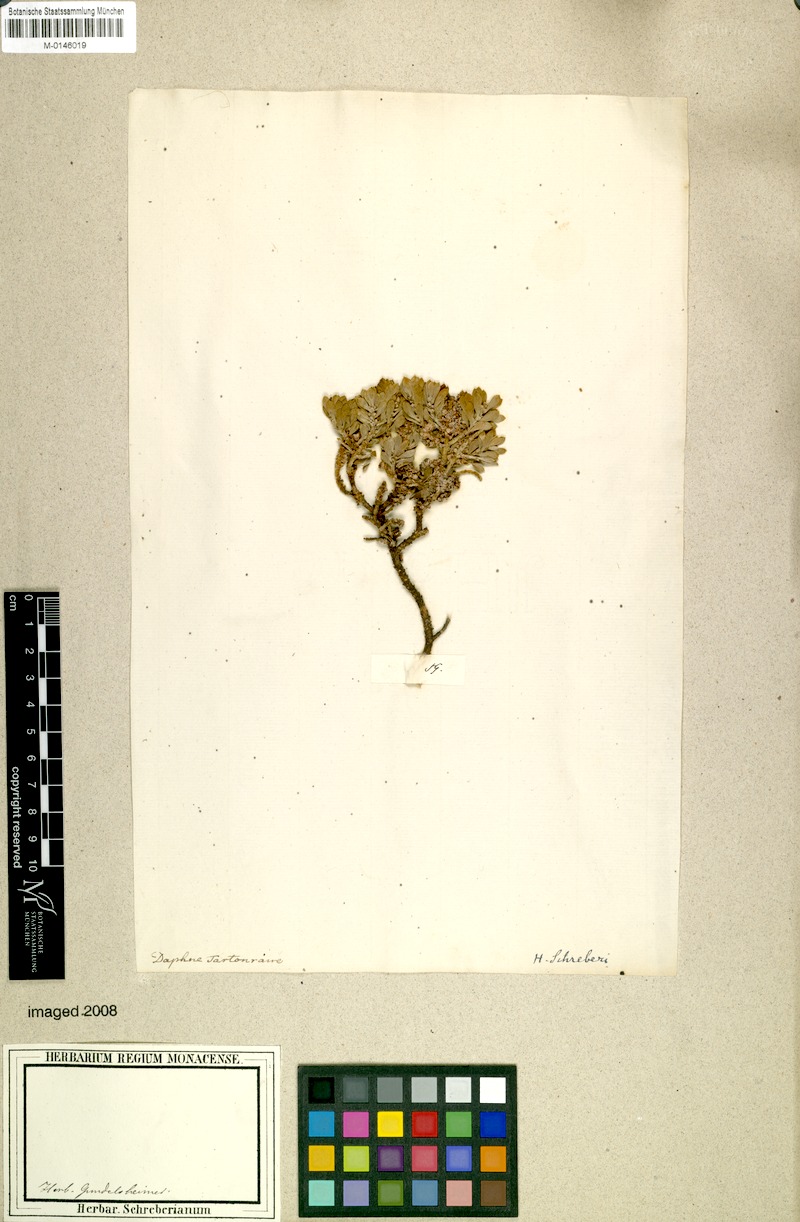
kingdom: Plantae
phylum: Tracheophyta
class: Magnoliopsida
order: Malvales
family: Thymelaeaceae
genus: Thymelaea
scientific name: Thymelaea tartonraira
